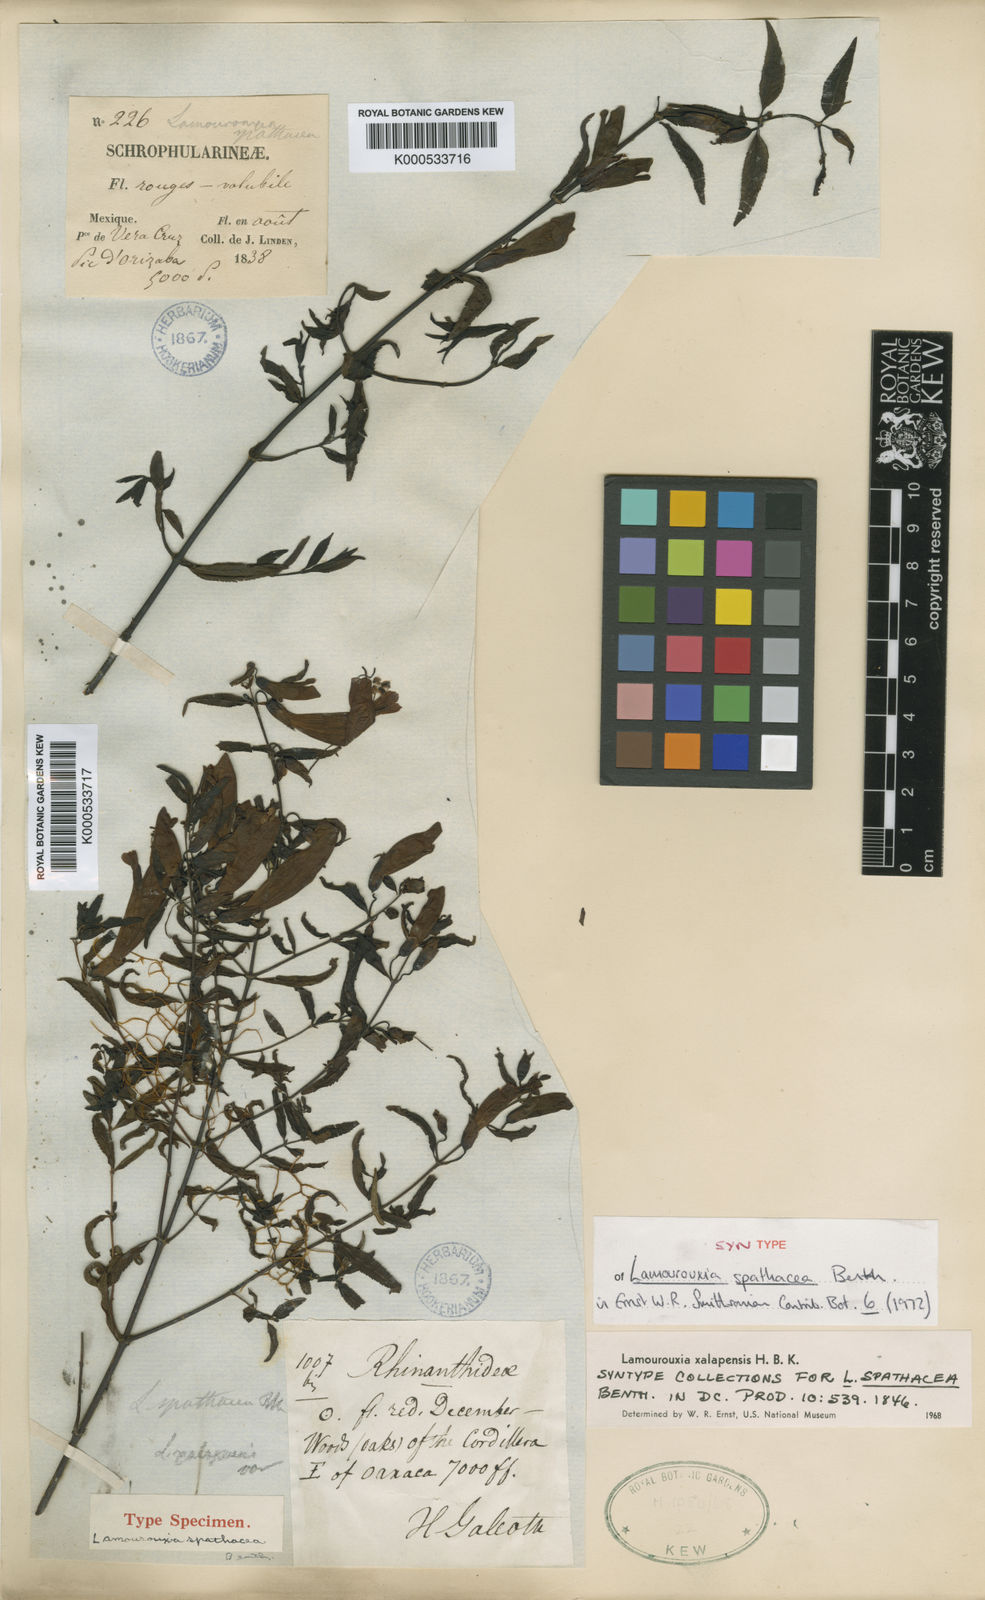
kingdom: Plantae
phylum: Tracheophyta
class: Magnoliopsida
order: Lamiales
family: Orobanchaceae
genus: Lamourouxia
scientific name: Lamourouxia xalapensis
